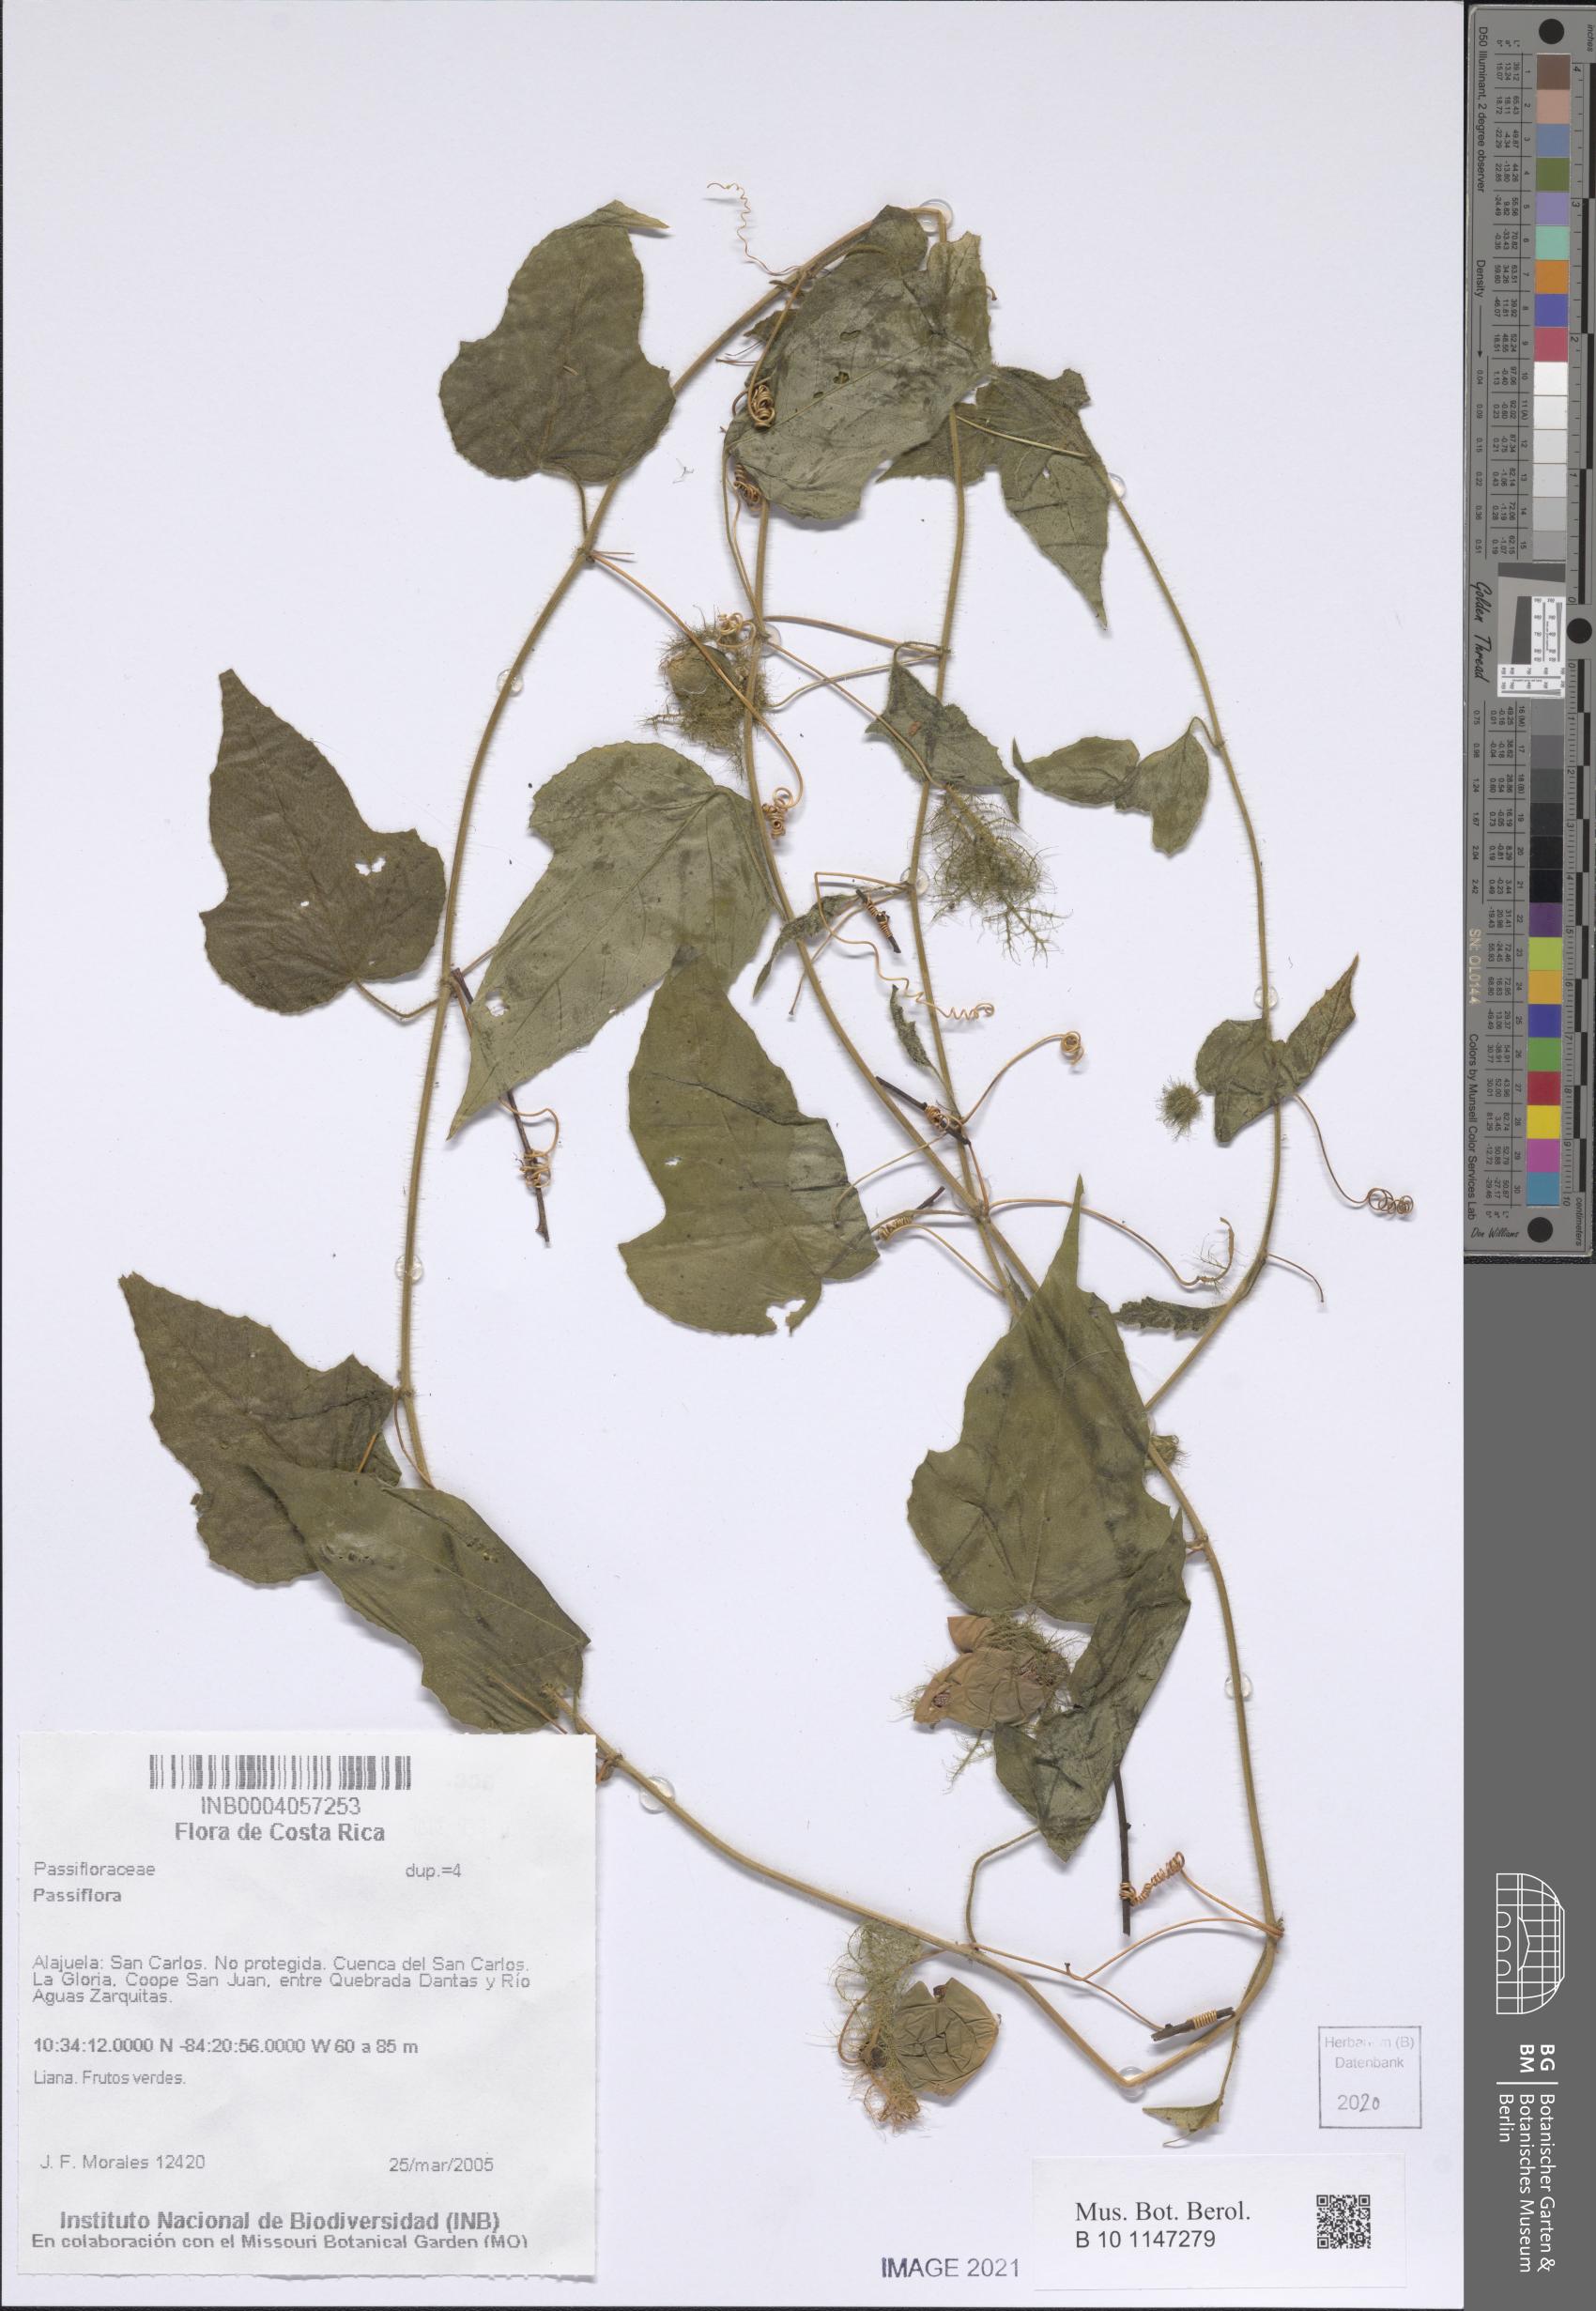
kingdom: Plantae
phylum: Tracheophyta
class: Magnoliopsida
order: Malpighiales
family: Passifloraceae
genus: Passiflora
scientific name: Passiflora
